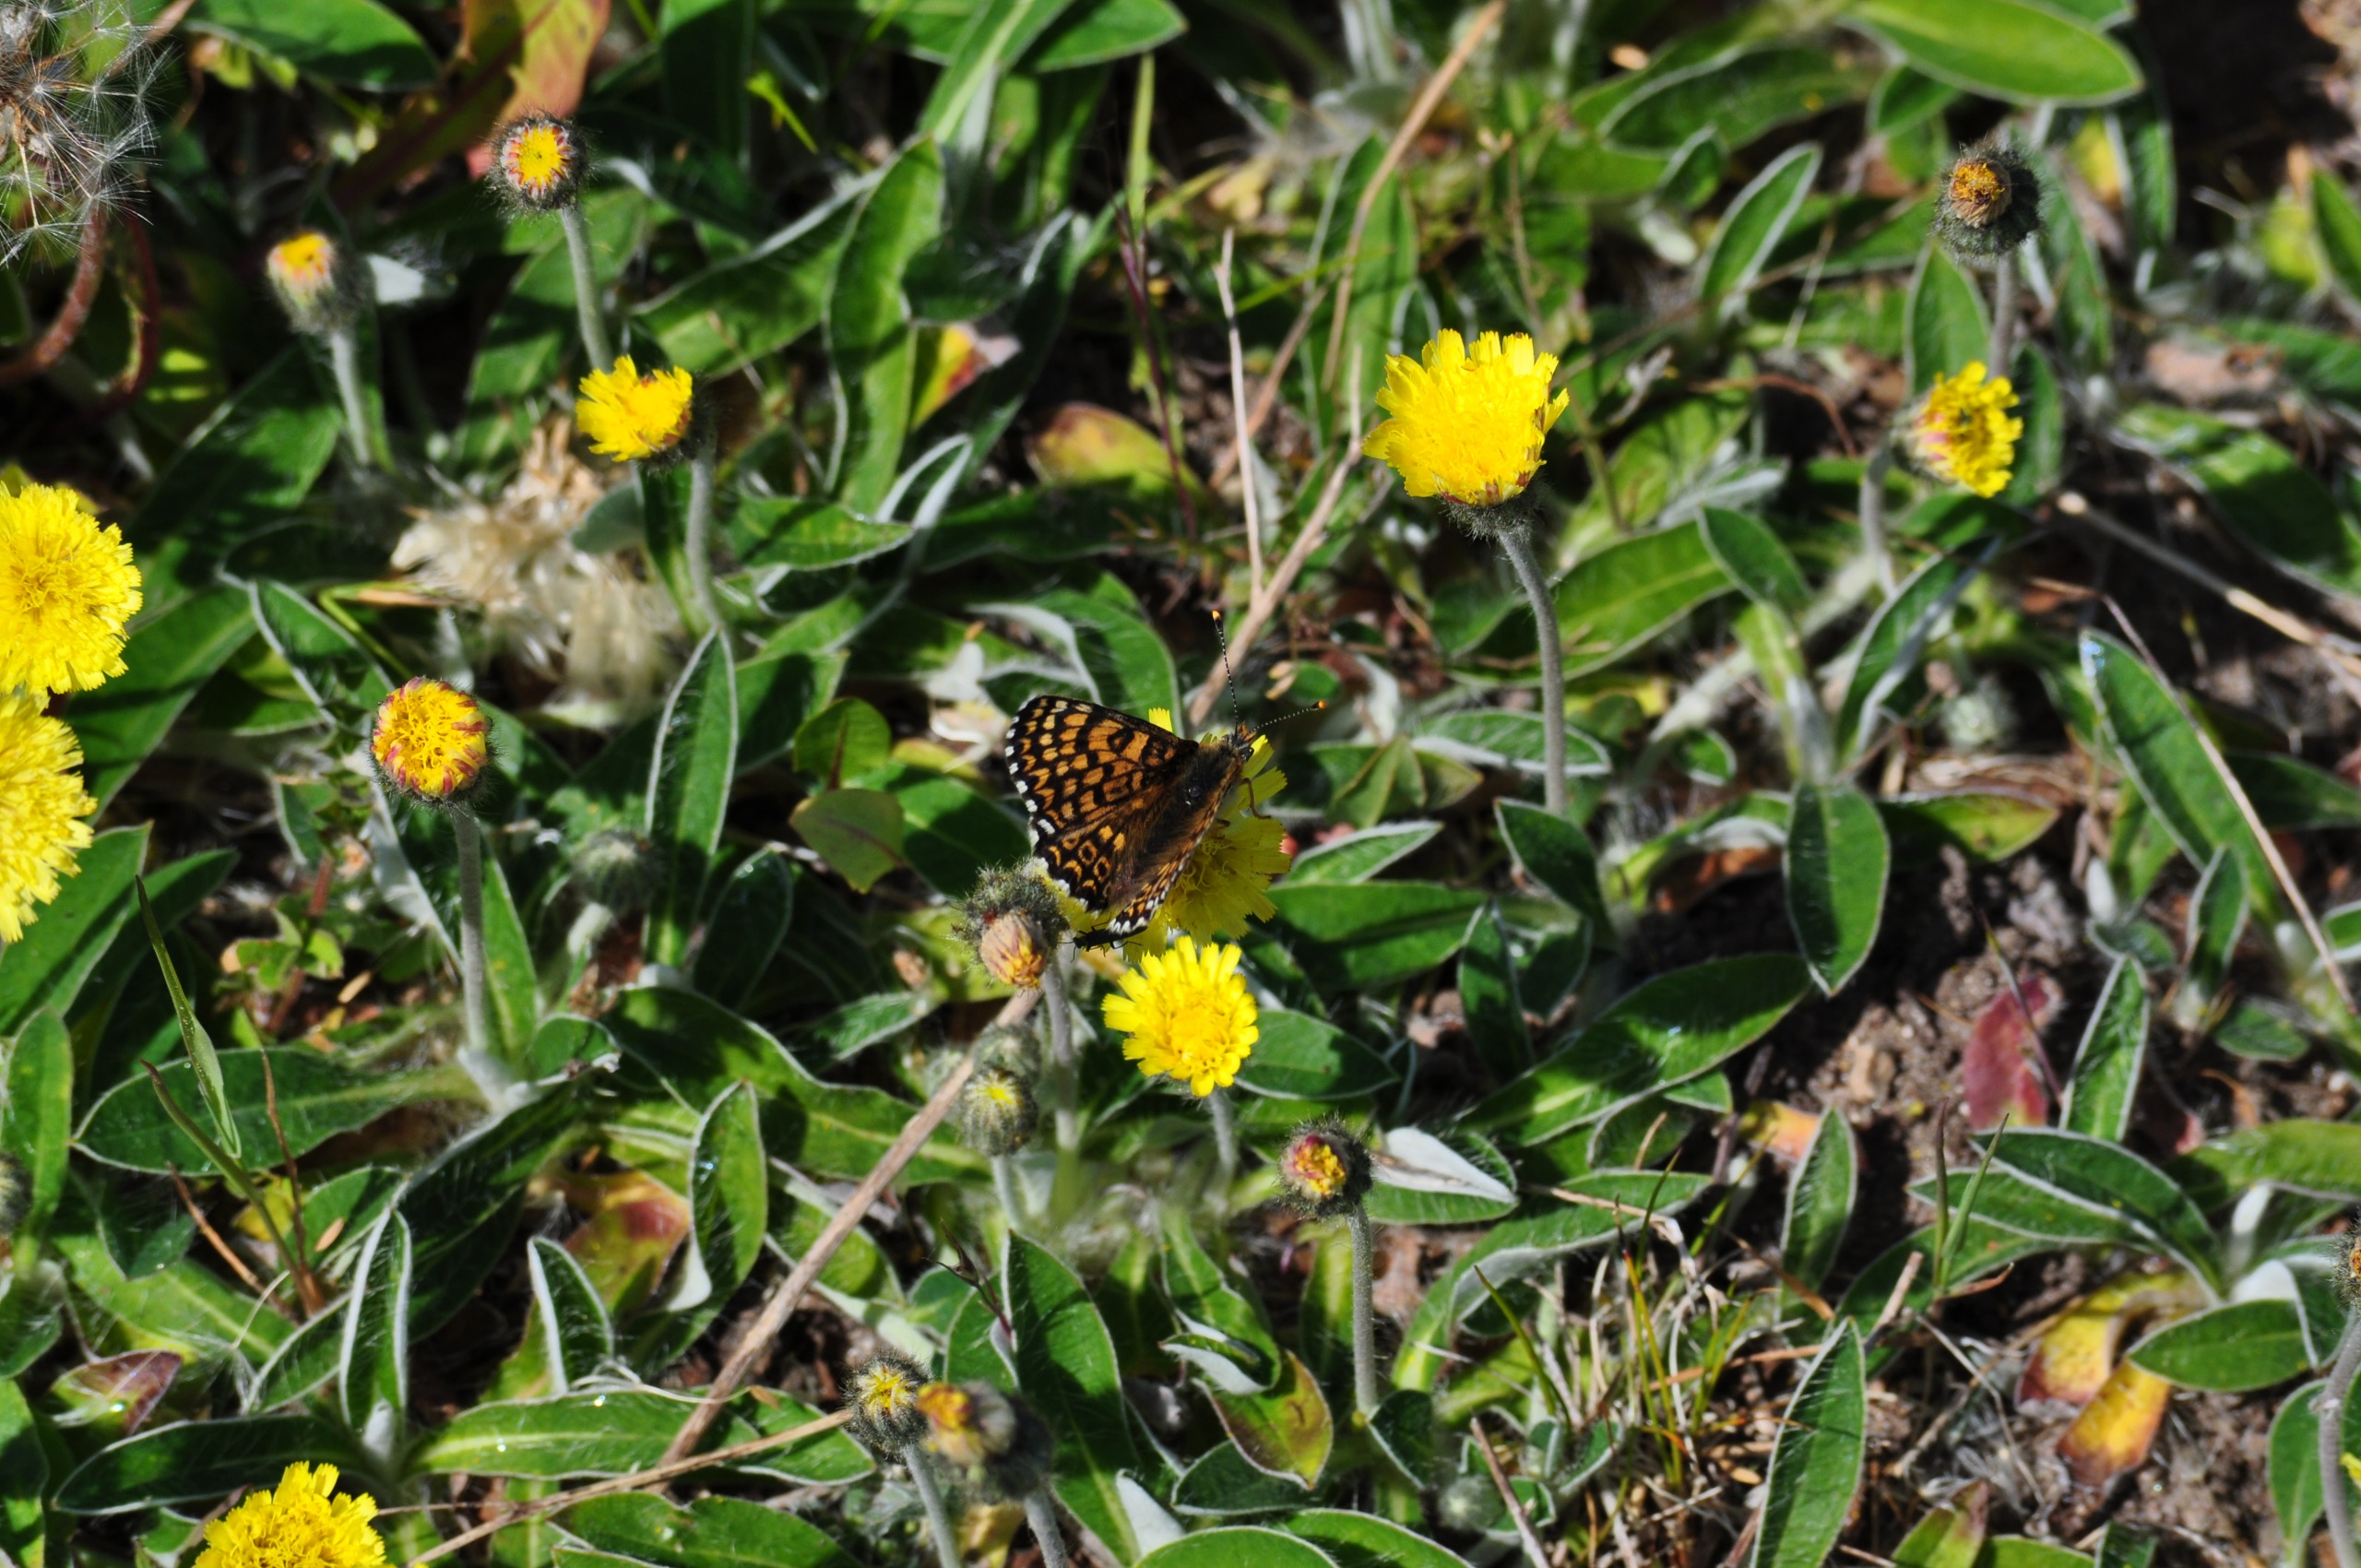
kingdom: Animalia
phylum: Arthropoda
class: Insecta
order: Lepidoptera
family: Nymphalidae
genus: Melitaea
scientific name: Melitaea cinxia
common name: Okkergul pletvinge
